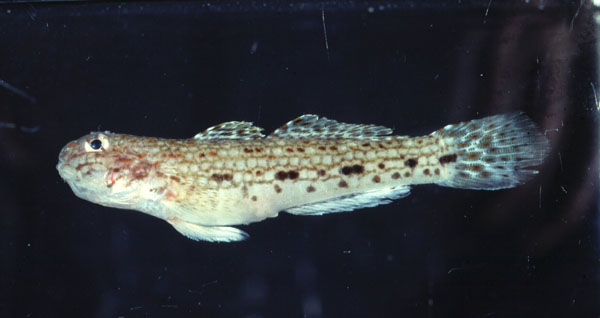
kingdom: Animalia
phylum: Chordata
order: Perciformes
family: Gobiidae
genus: Istigobius
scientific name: Istigobius decoratus
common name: Decorated goby
